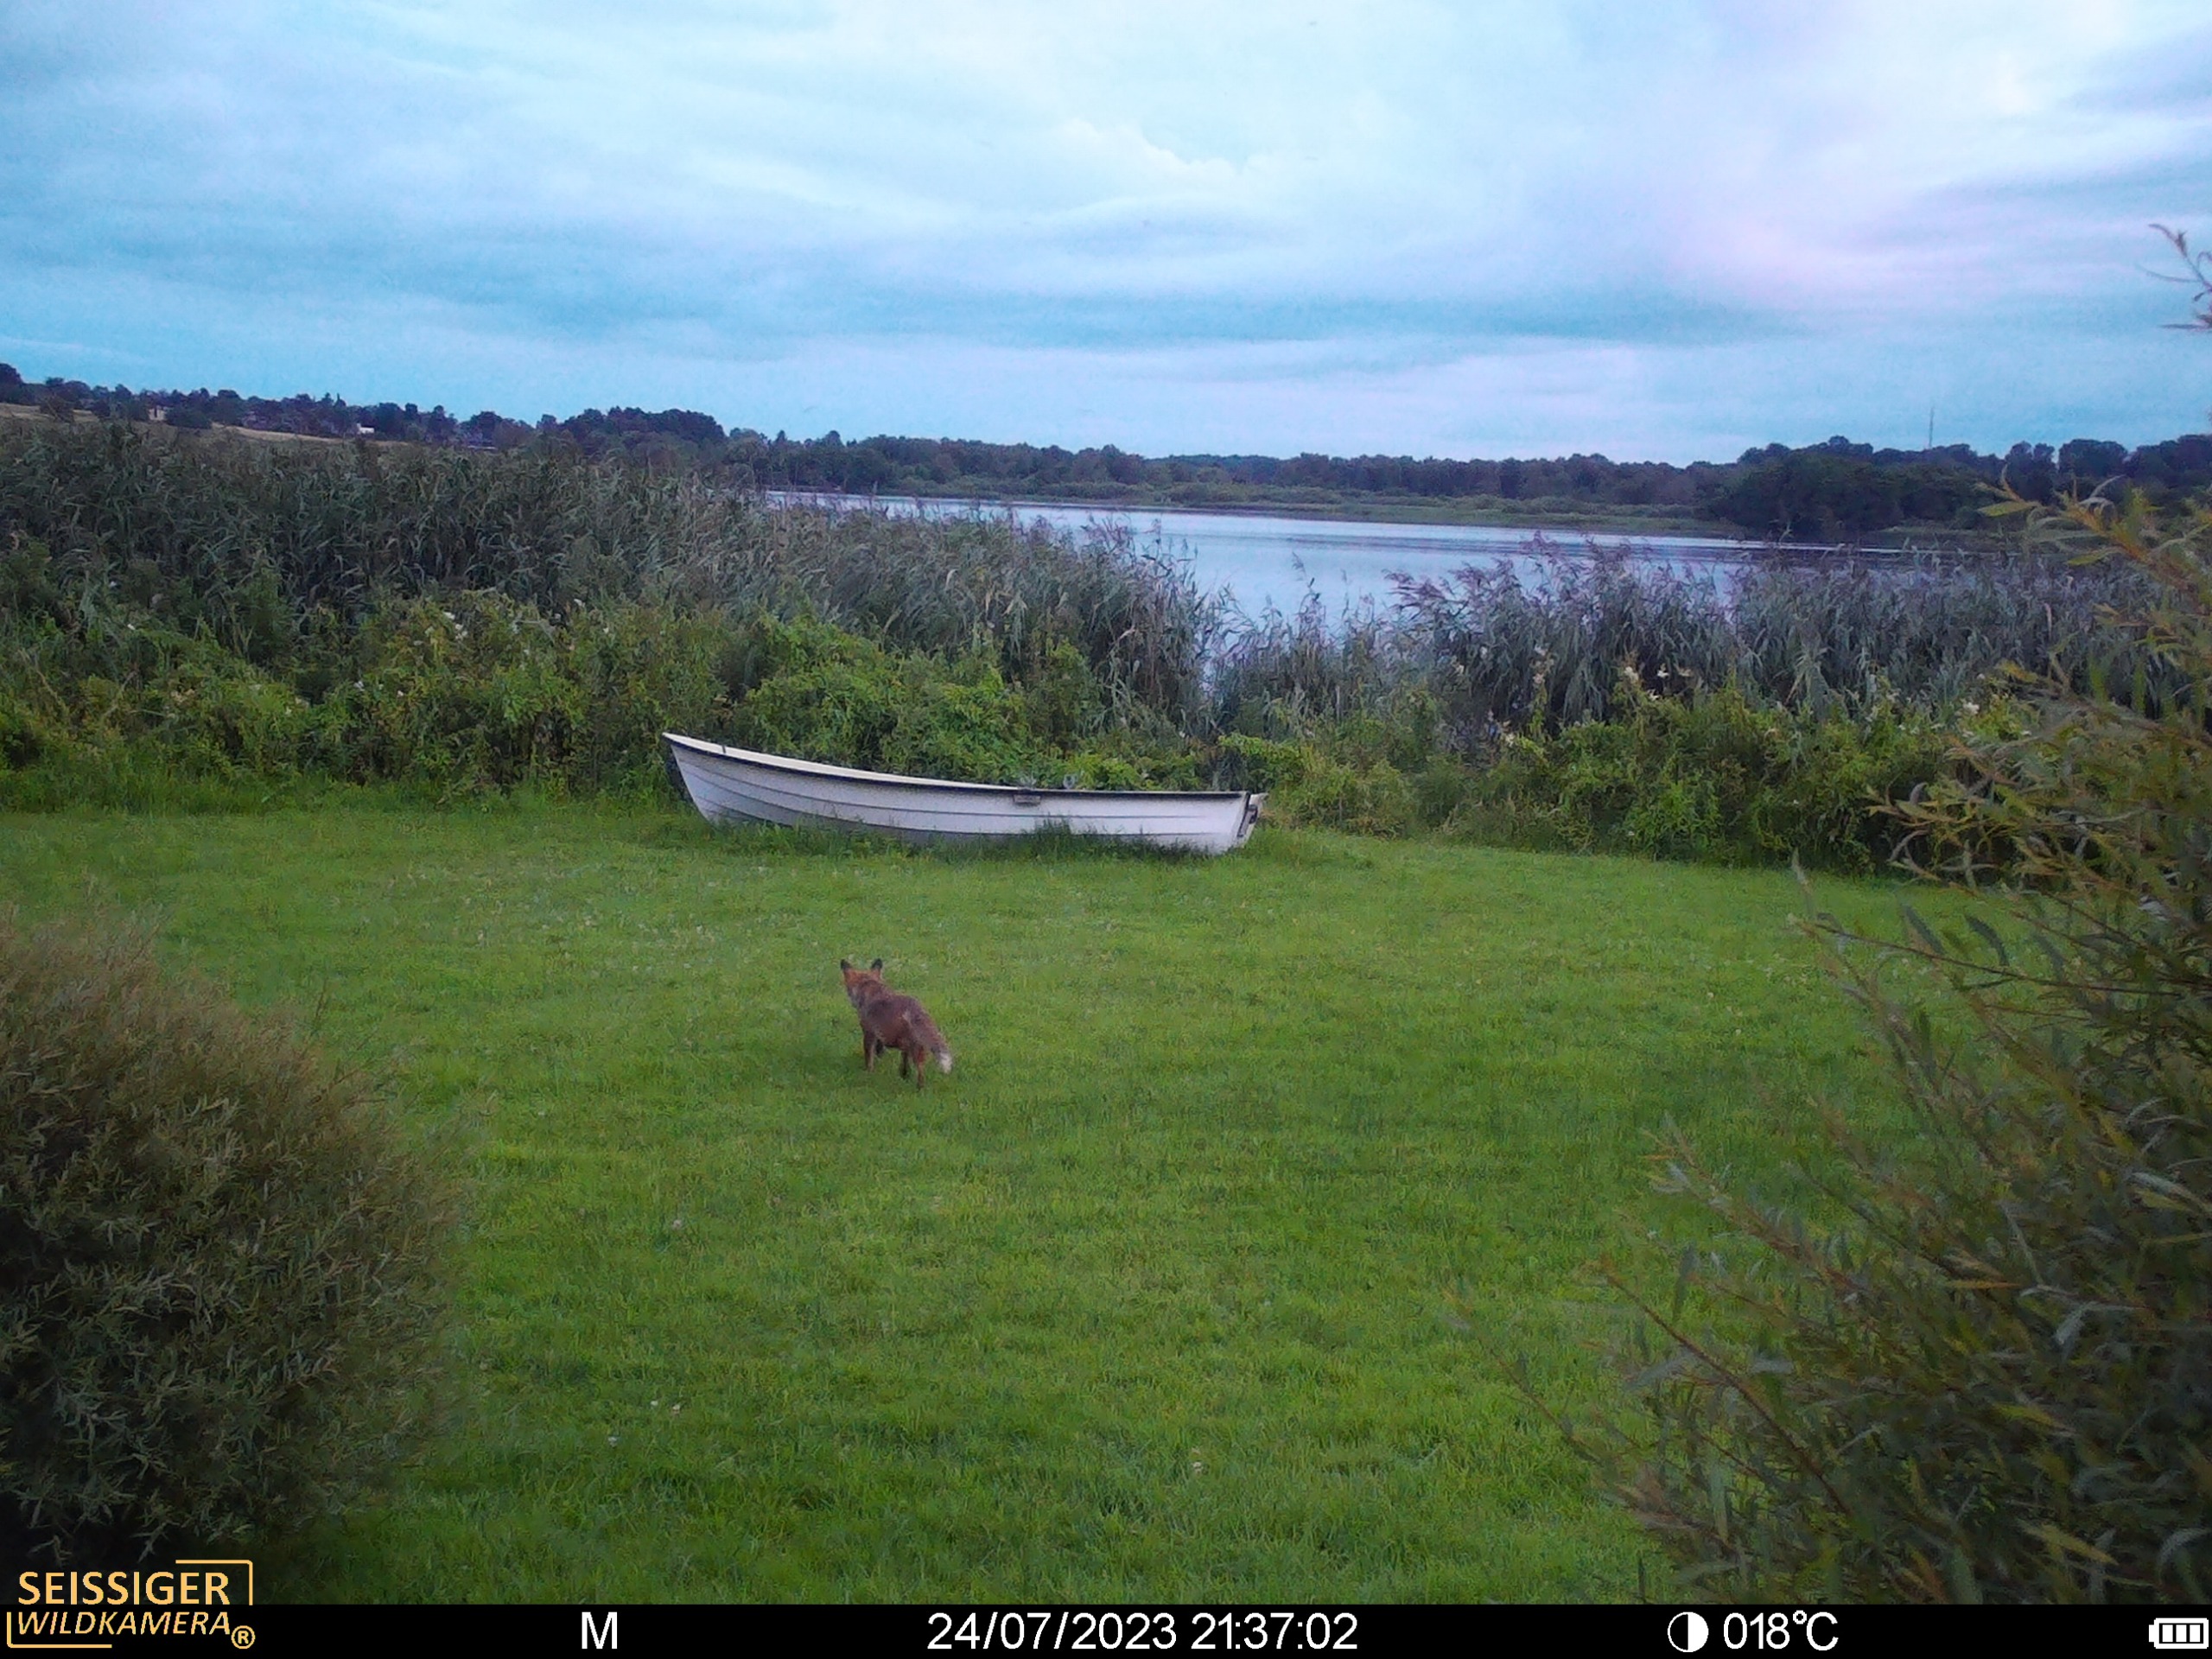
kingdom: Animalia
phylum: Chordata
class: Mammalia
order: Carnivora
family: Canidae
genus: Vulpes
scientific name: Vulpes vulpes
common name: Ræv
